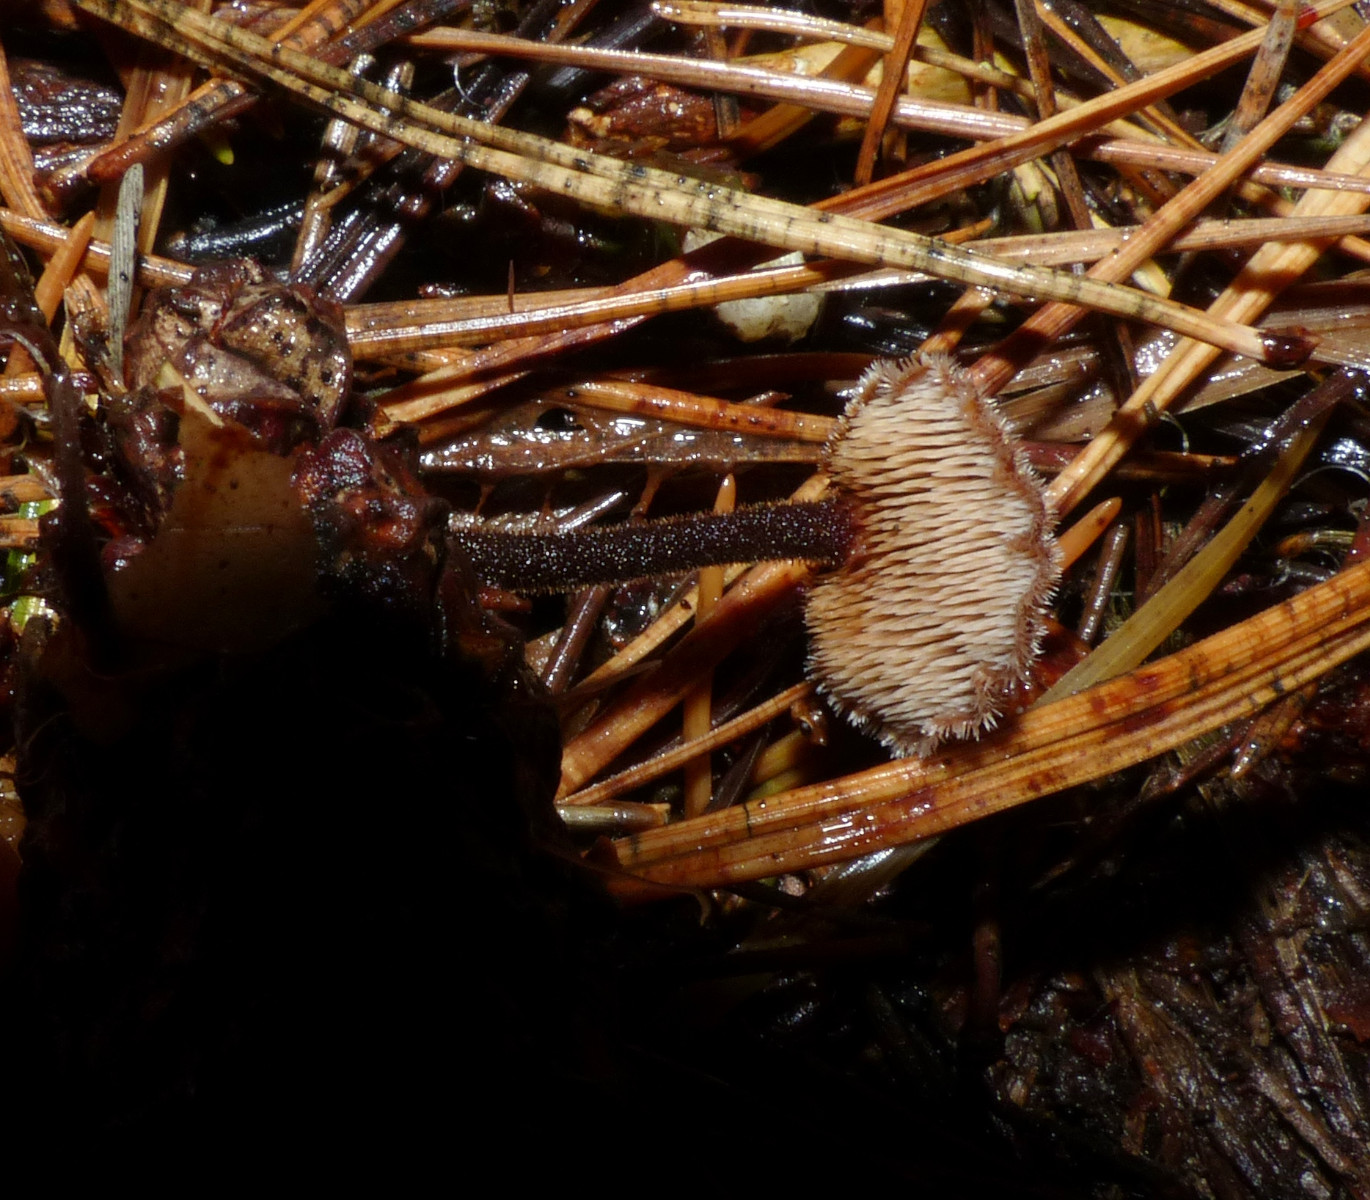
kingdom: Fungi
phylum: Basidiomycota
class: Agaricomycetes
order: Russulales
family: Auriscalpiaceae
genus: Auriscalpium
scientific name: Auriscalpium vulgare
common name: koglepigsvamp
